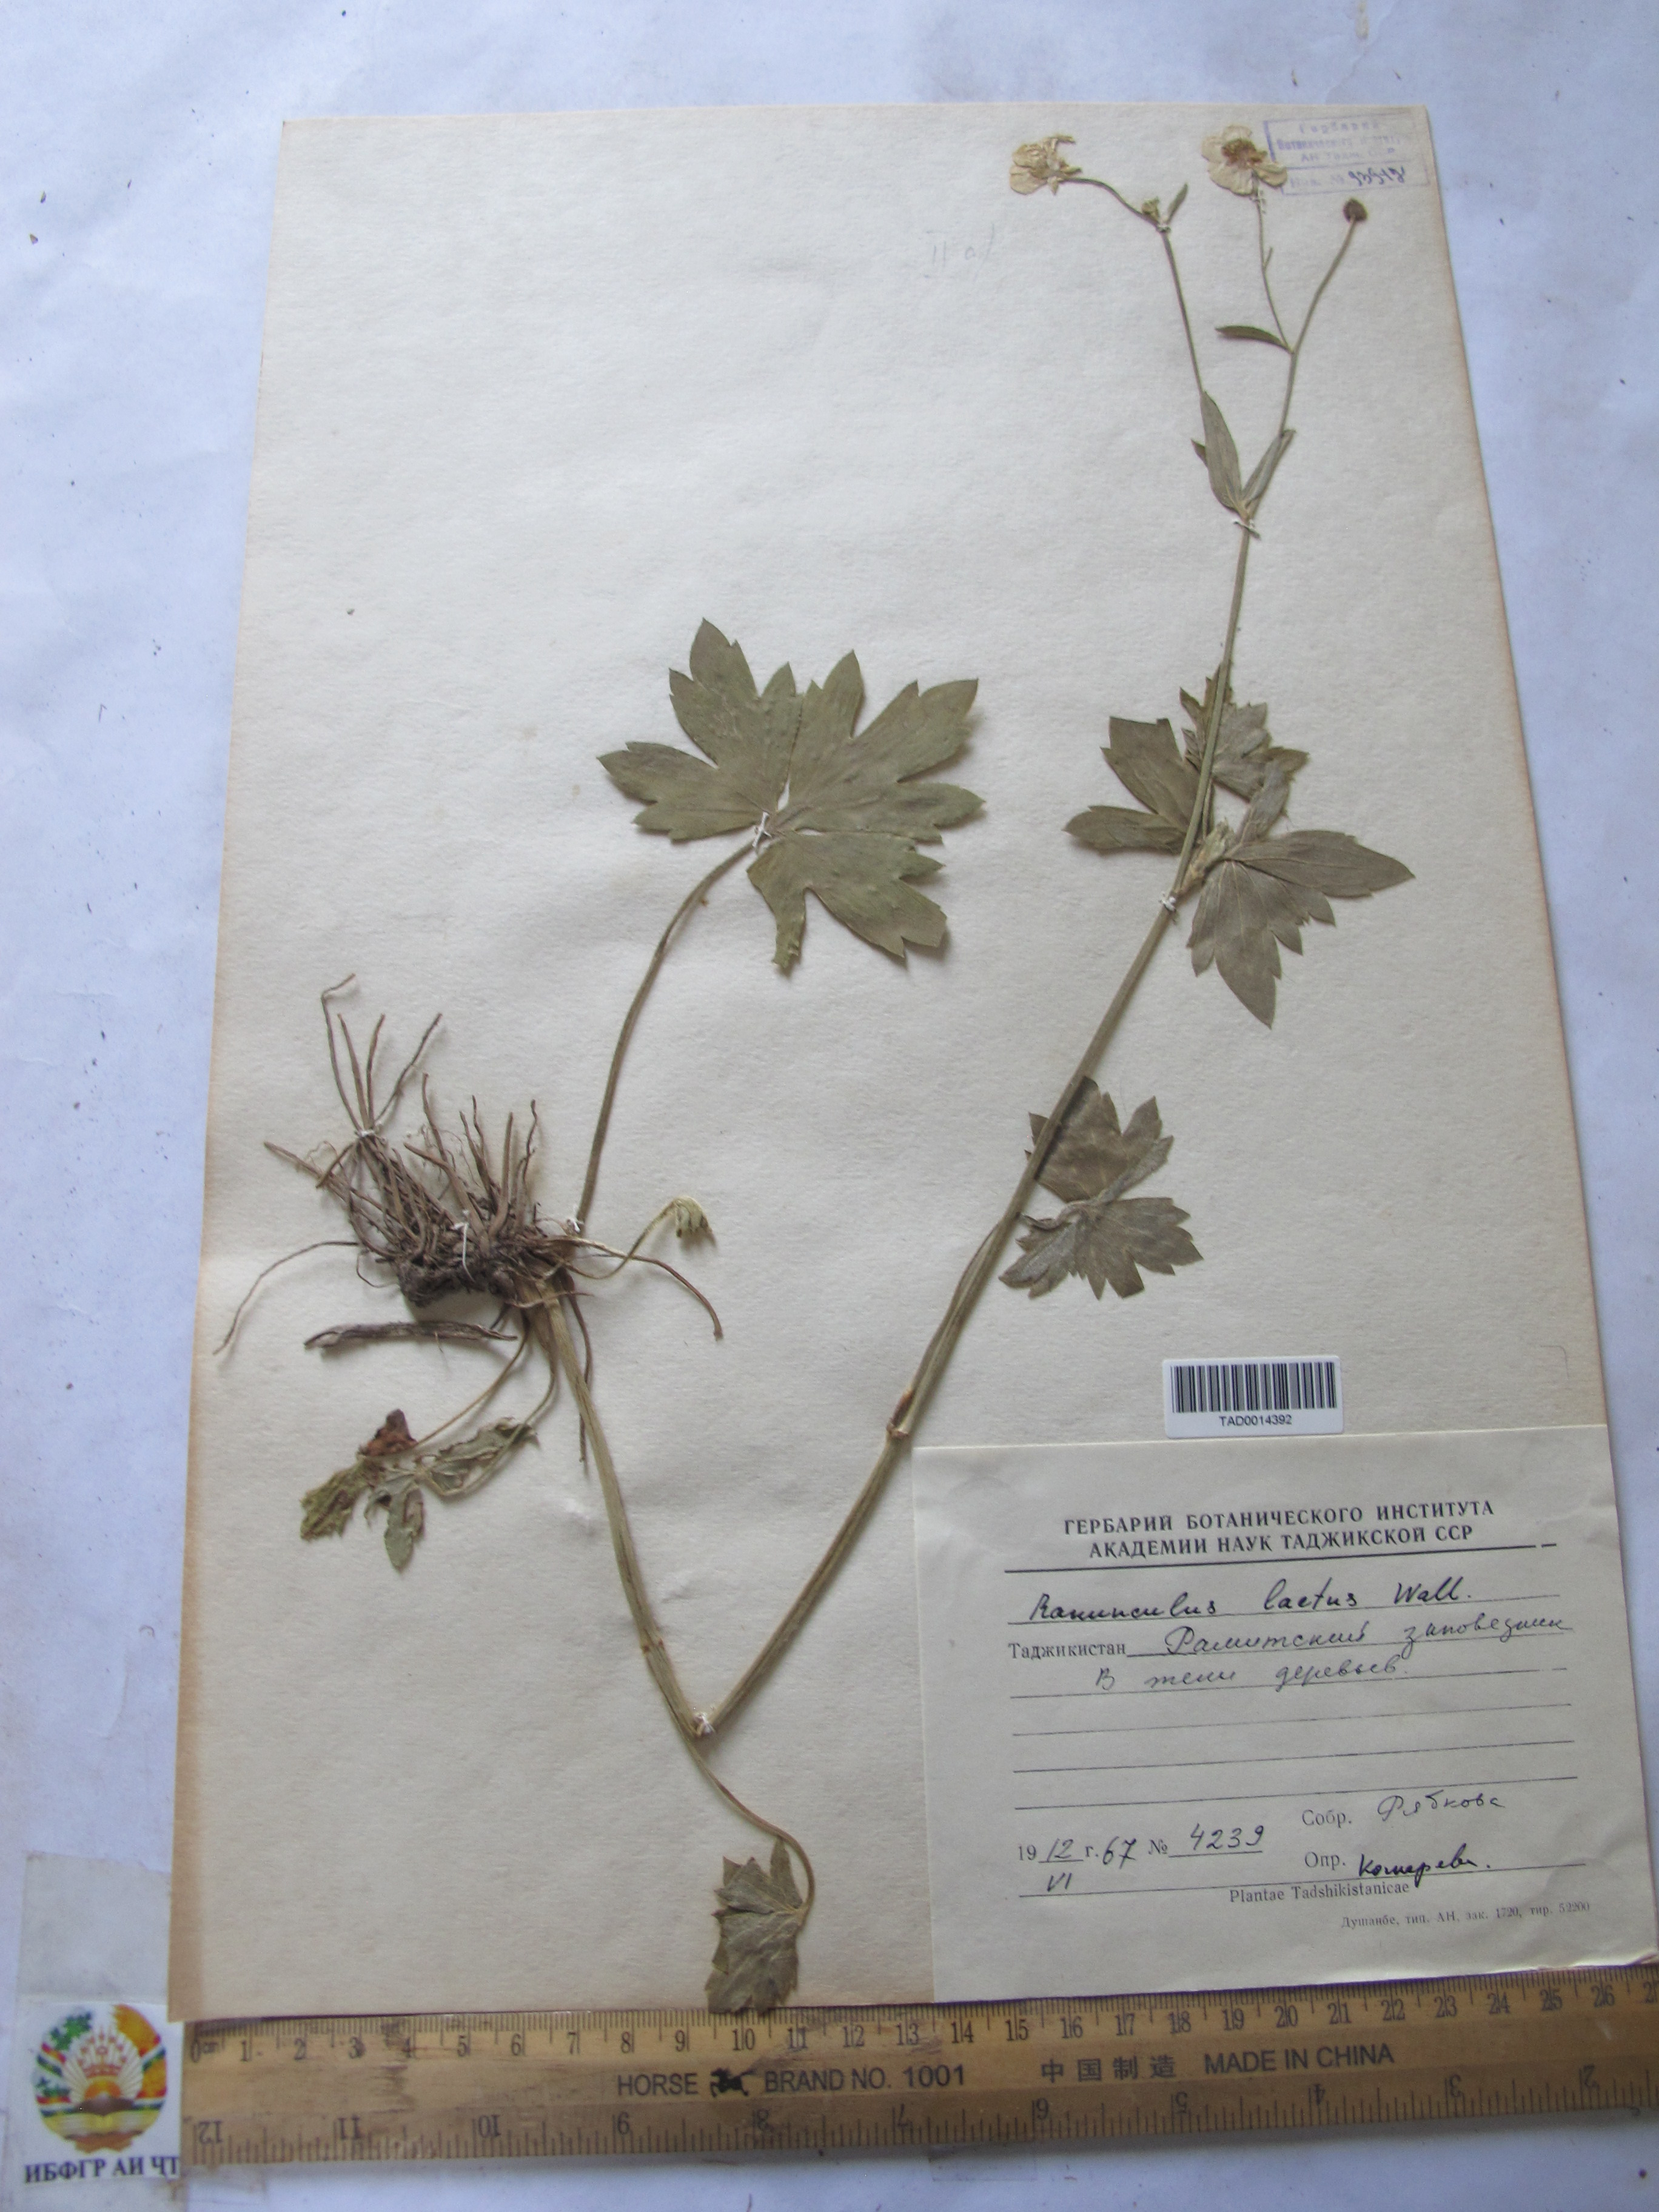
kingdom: Plantae
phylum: Tracheophyta
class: Magnoliopsida
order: Ranunculales
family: Ranunculaceae
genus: Ranunculus
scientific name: Ranunculus distans
